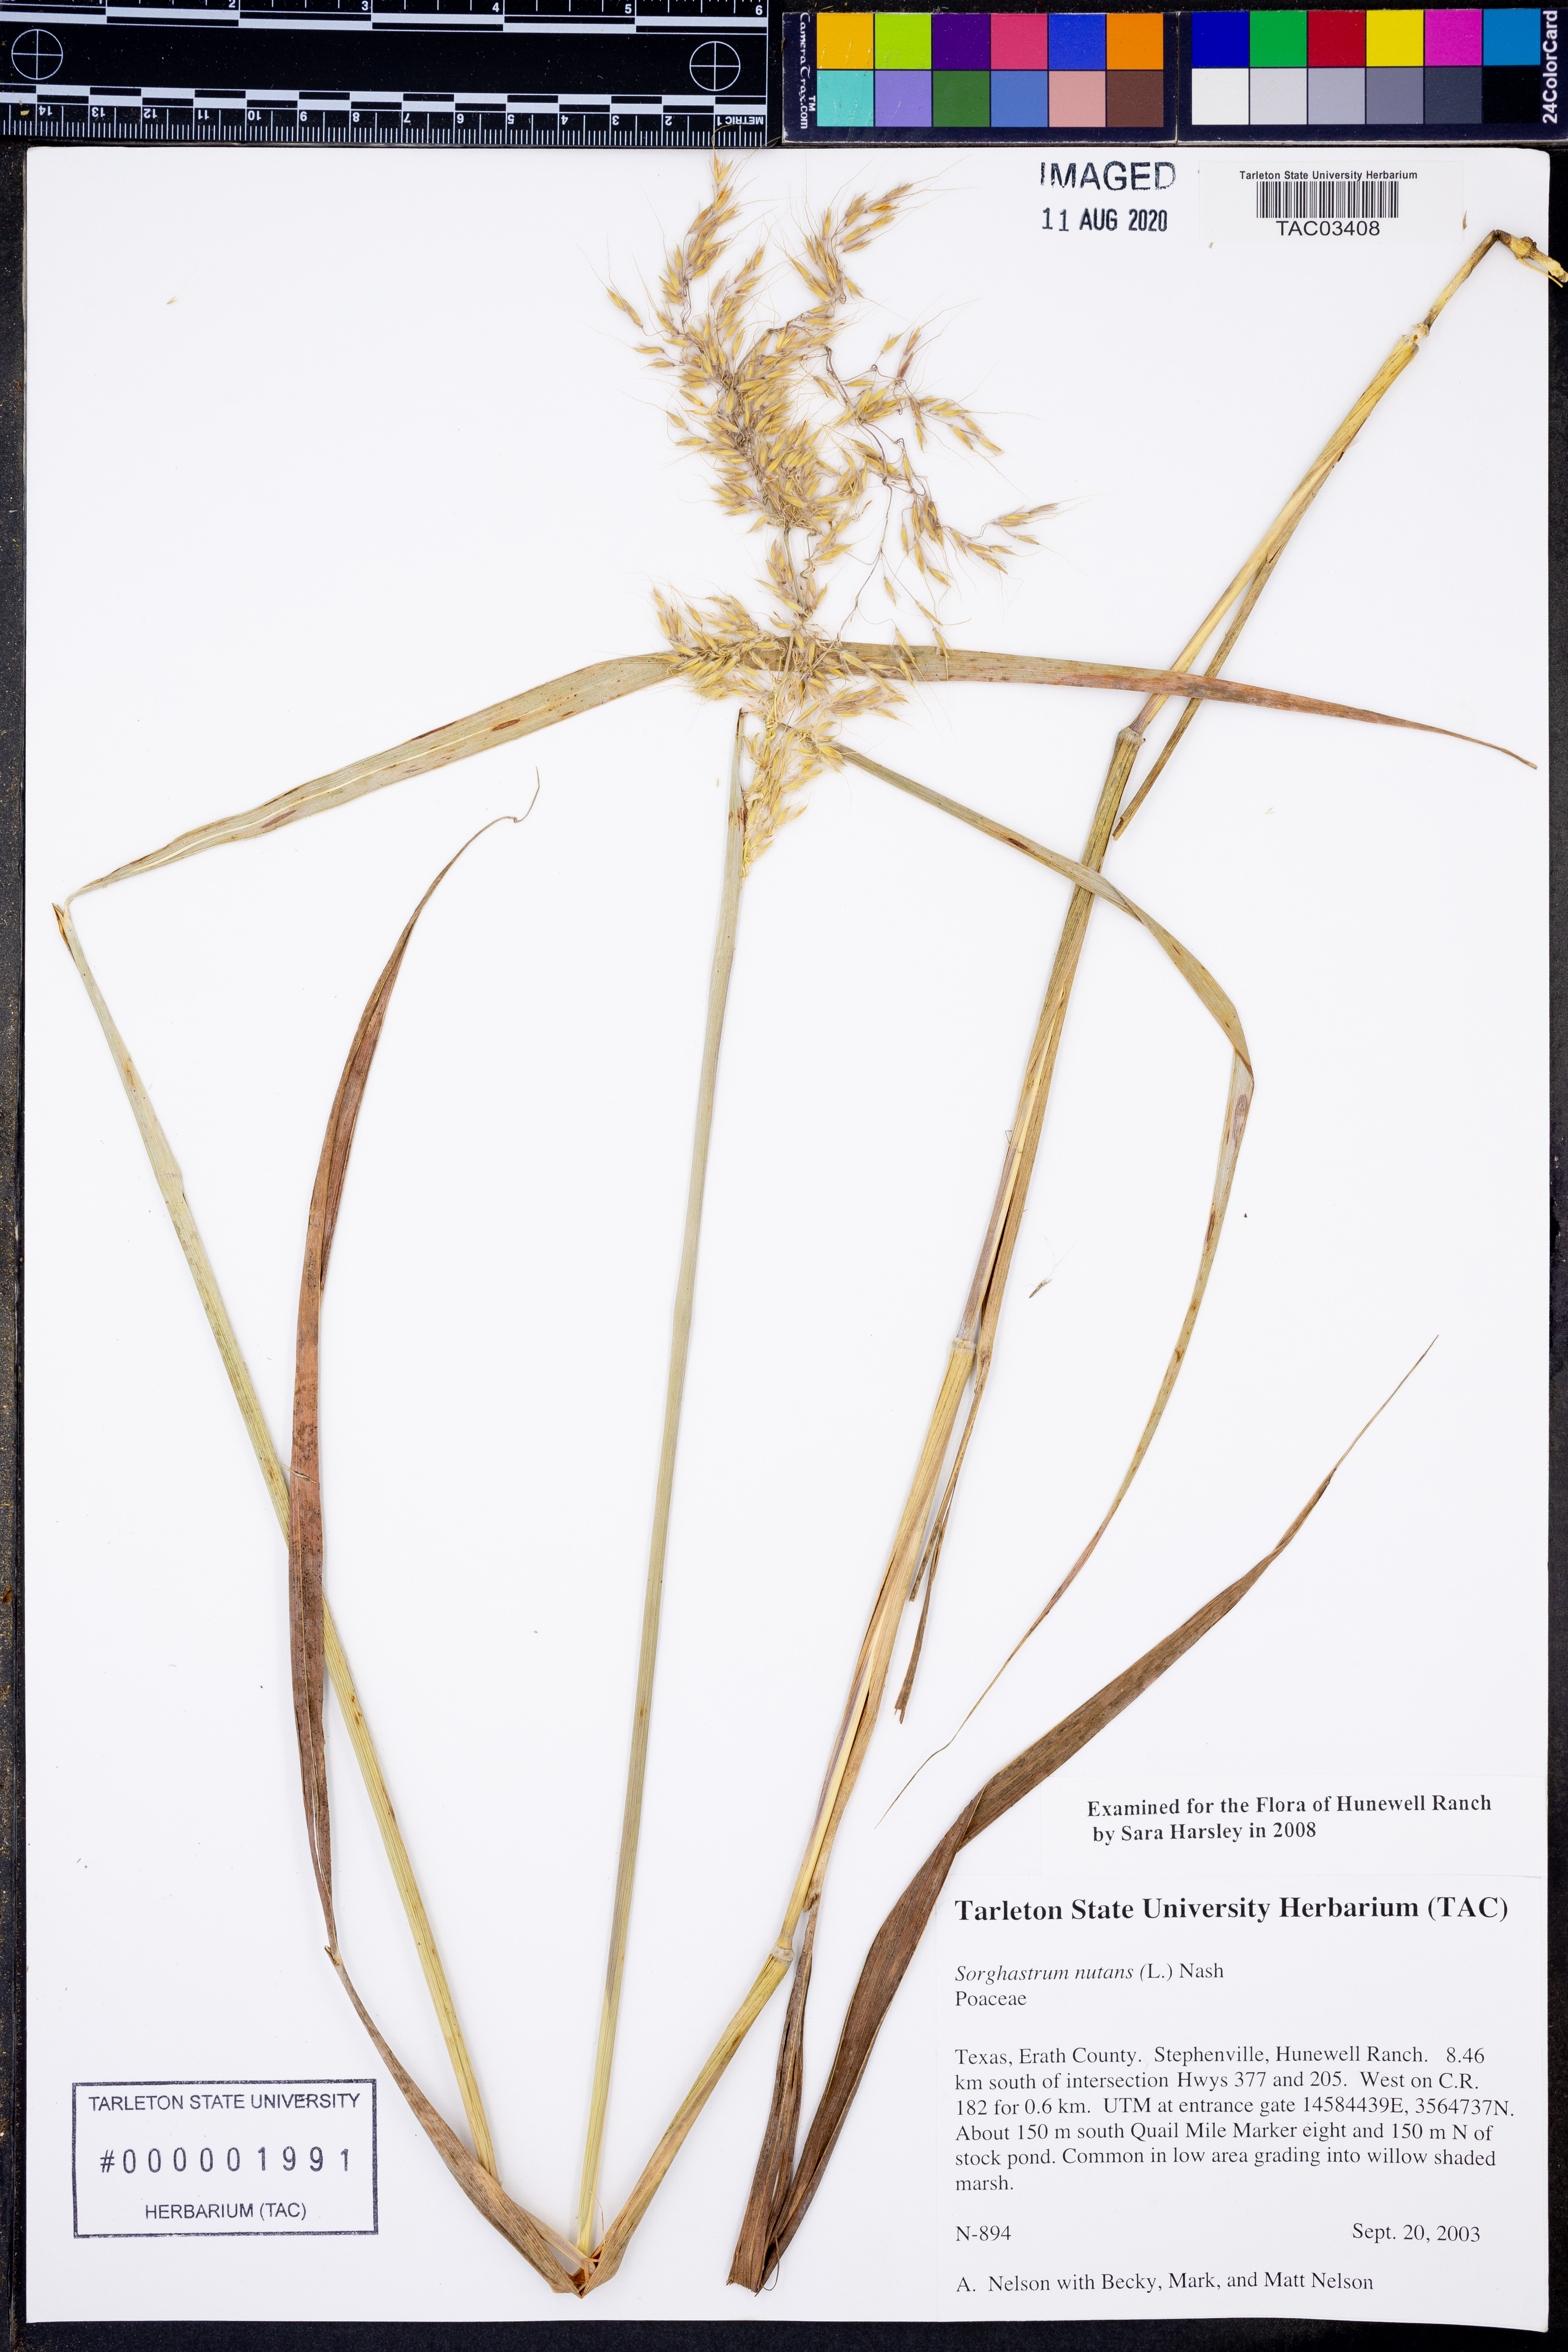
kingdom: Plantae
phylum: Tracheophyta
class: Liliopsida
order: Poales
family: Poaceae
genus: Sorghastrum
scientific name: Sorghastrum nutans
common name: Indian grass
